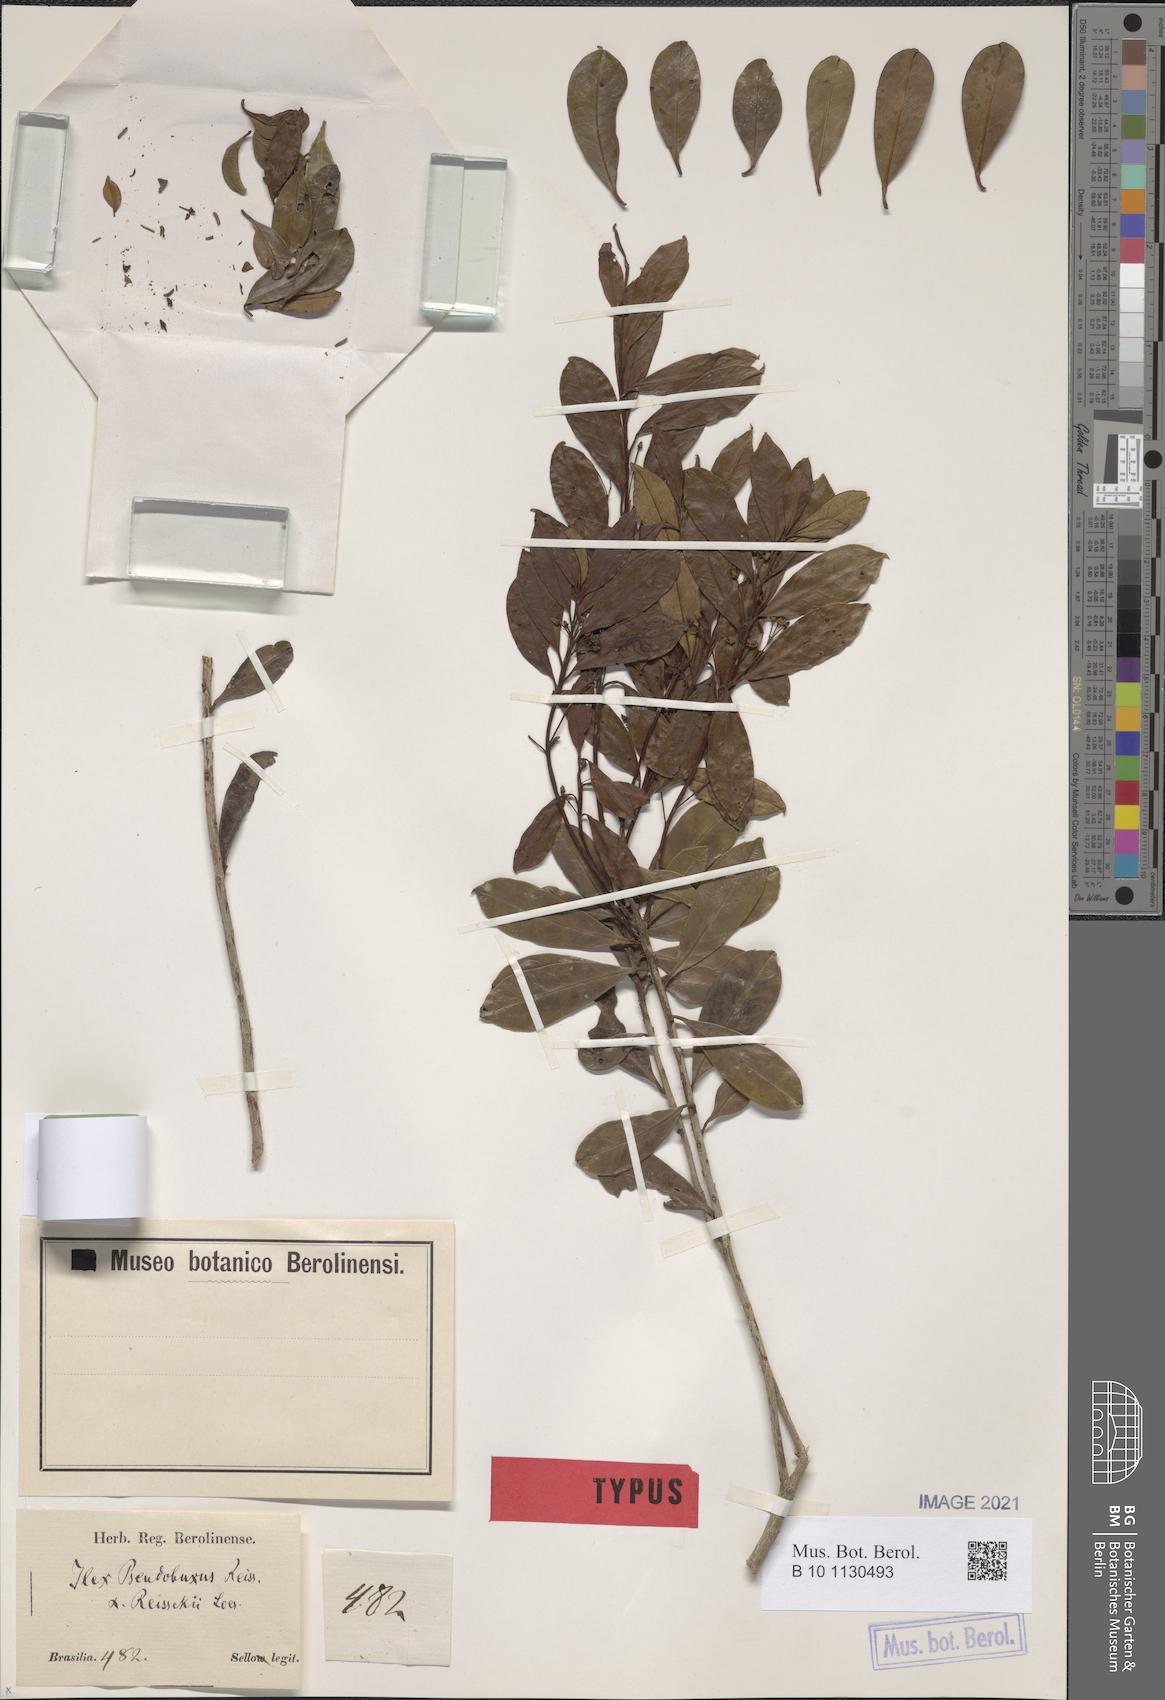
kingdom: Plantae
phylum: Tracheophyta
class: Magnoliopsida
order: Aquifoliales
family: Aquifoliaceae
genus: Ilex
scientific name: Ilex pseudobuxus
